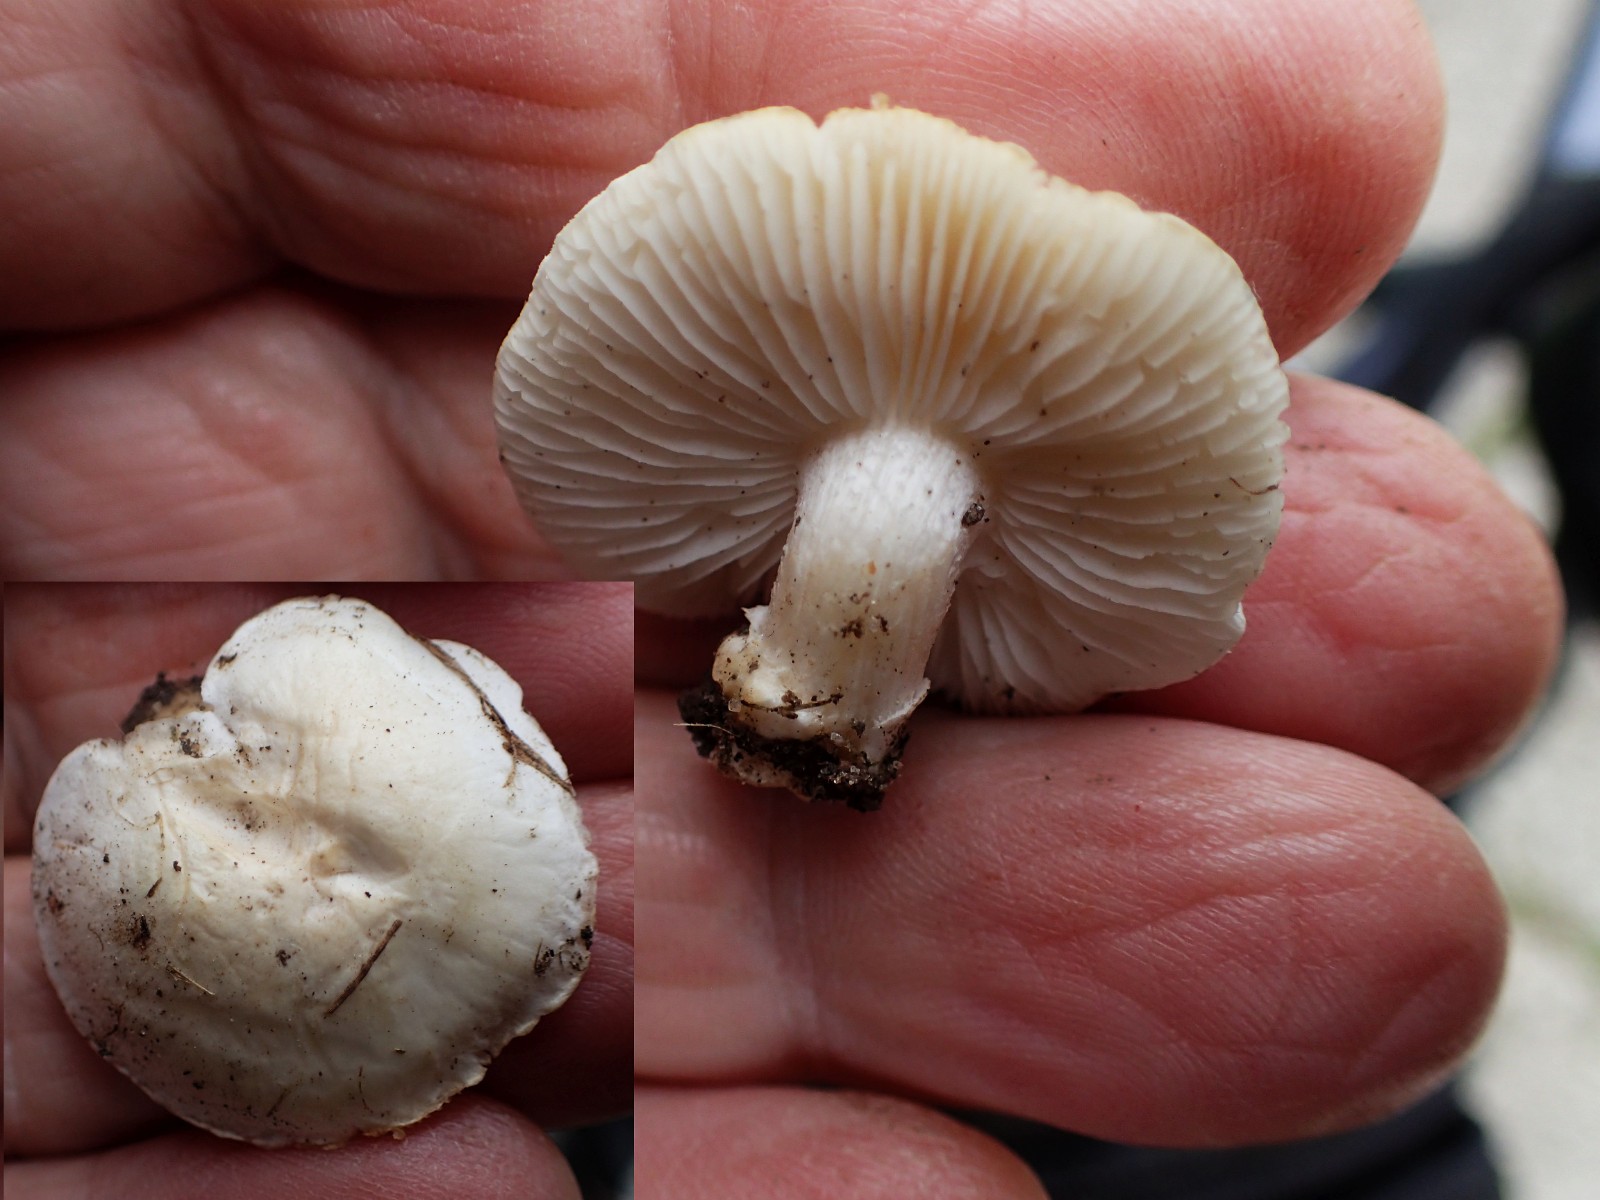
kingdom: Fungi
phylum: Basidiomycota
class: Agaricomycetes
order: Agaricales
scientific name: Agaricales
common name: champignonordenen
